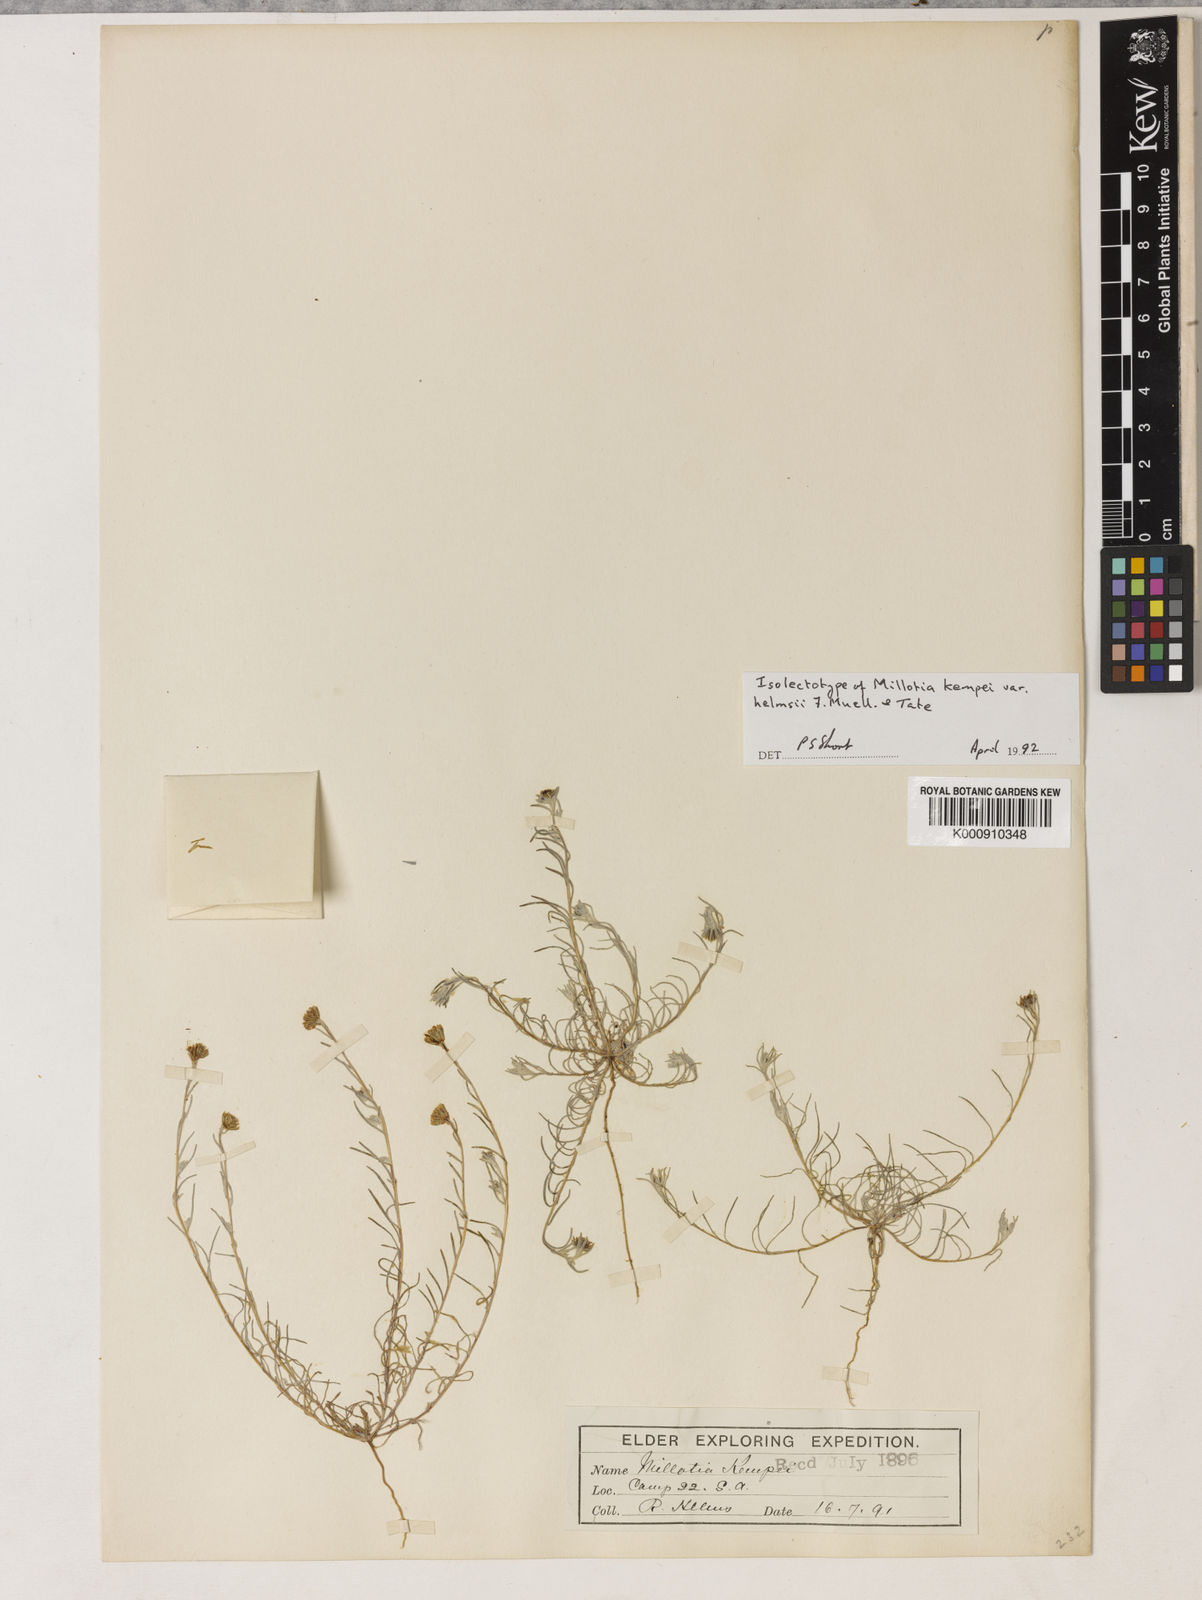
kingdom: Plantae
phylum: Tracheophyta
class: Magnoliopsida
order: Asterales
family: Asteraceae
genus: Millotia
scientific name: Millotia greevesii
